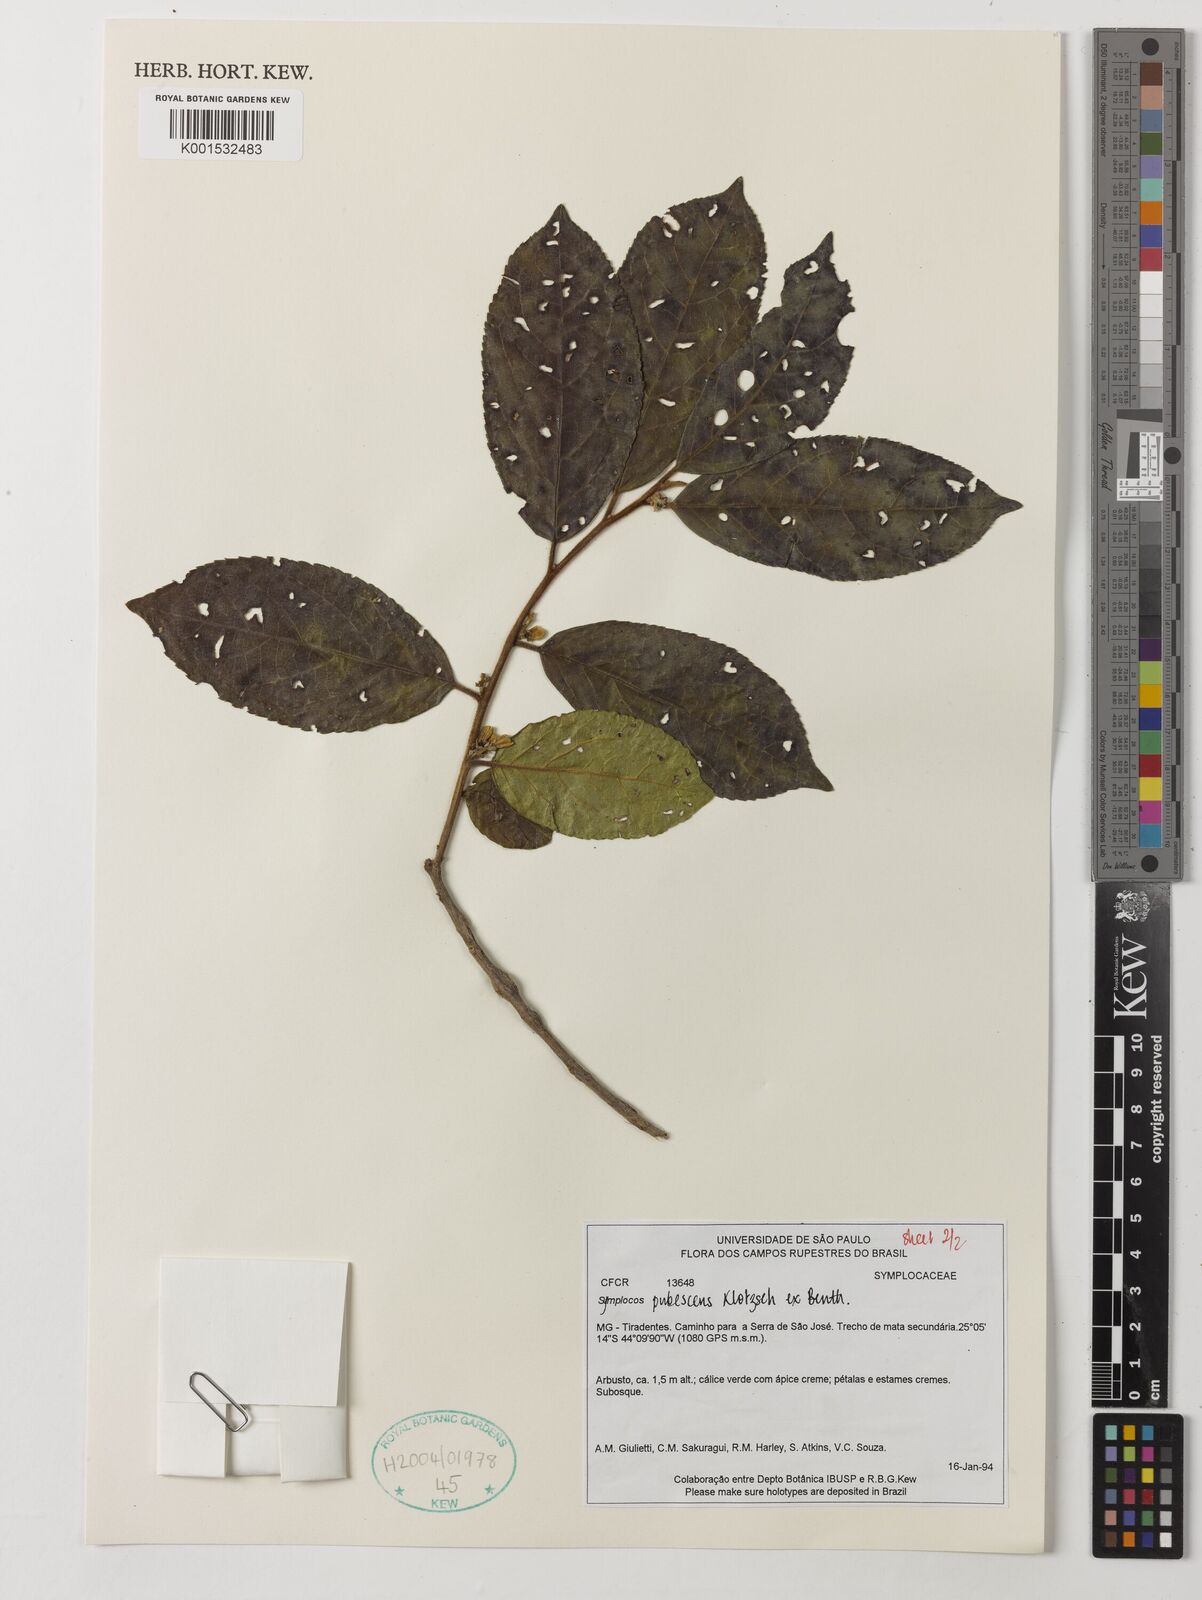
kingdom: Plantae
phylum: Tracheophyta
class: Magnoliopsida
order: Ericales
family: Symplocaceae
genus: Symplocos
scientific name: Symplocos pubescens
